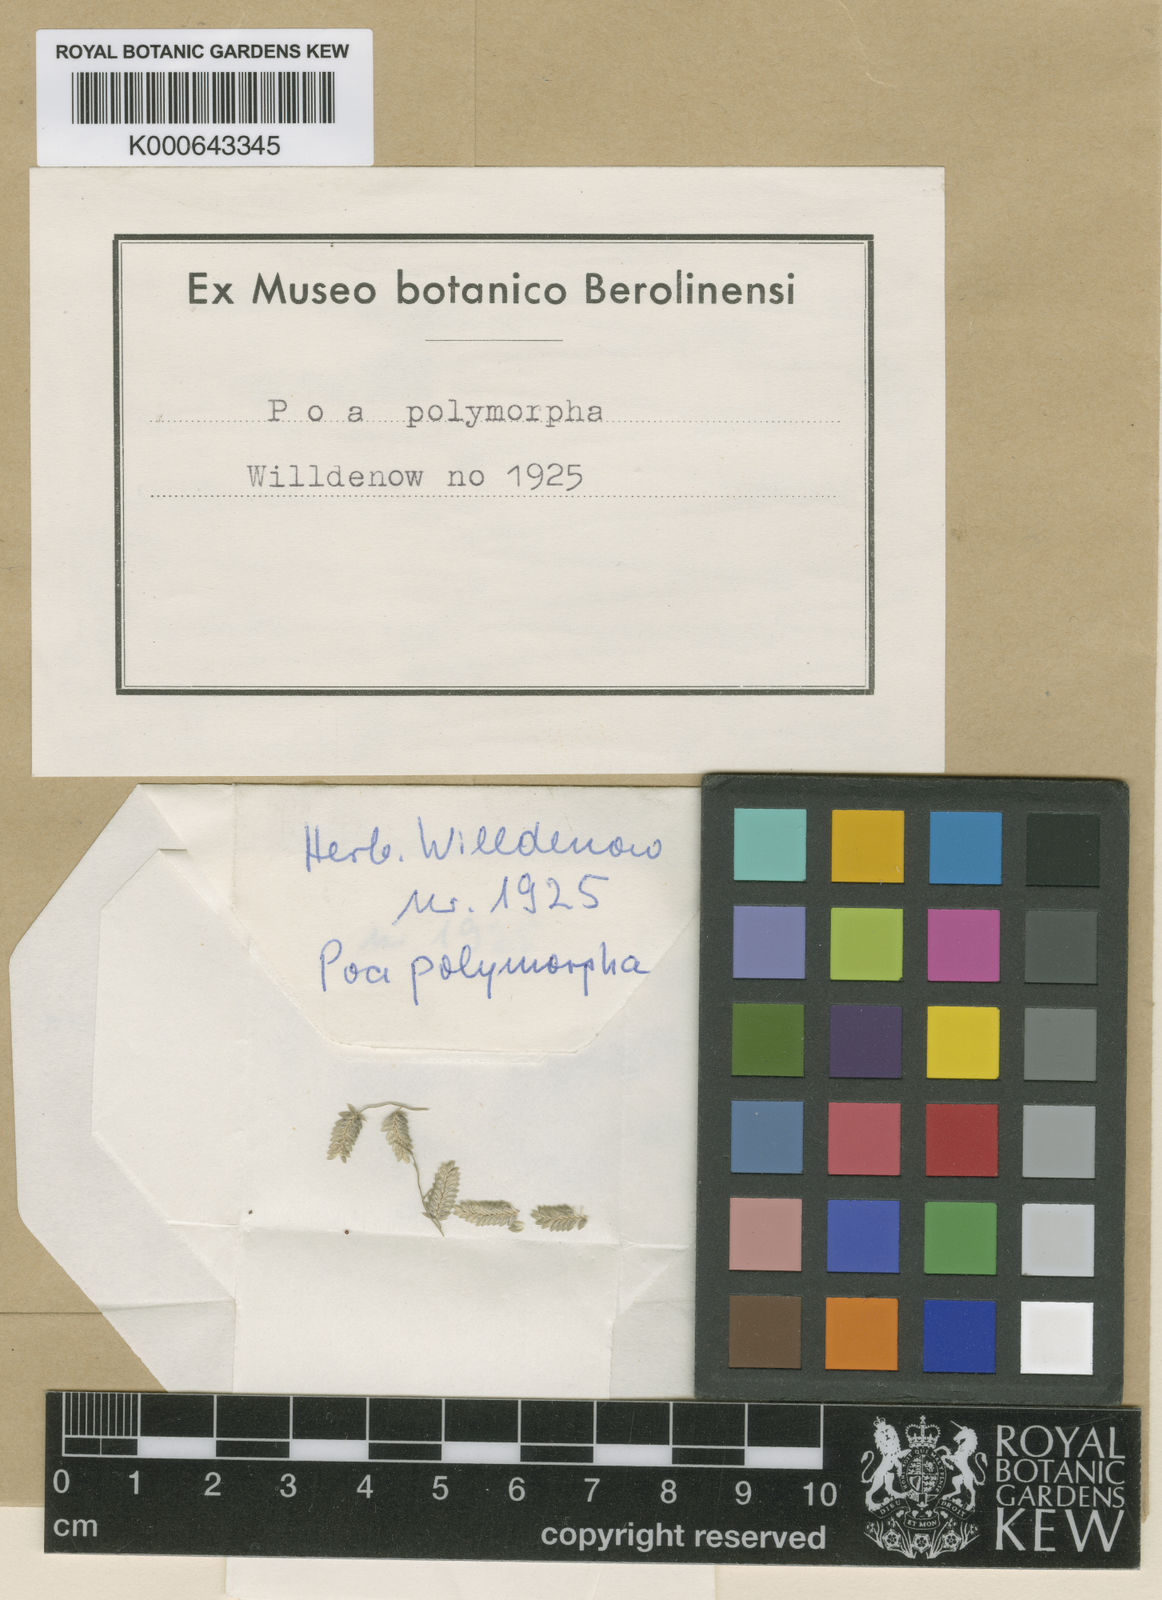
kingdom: Plantae
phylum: Tracheophyta
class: Liliopsida
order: Poales
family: Poaceae
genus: Eragrostis
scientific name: Eragrostis cilianensis
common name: Stinkgrass
